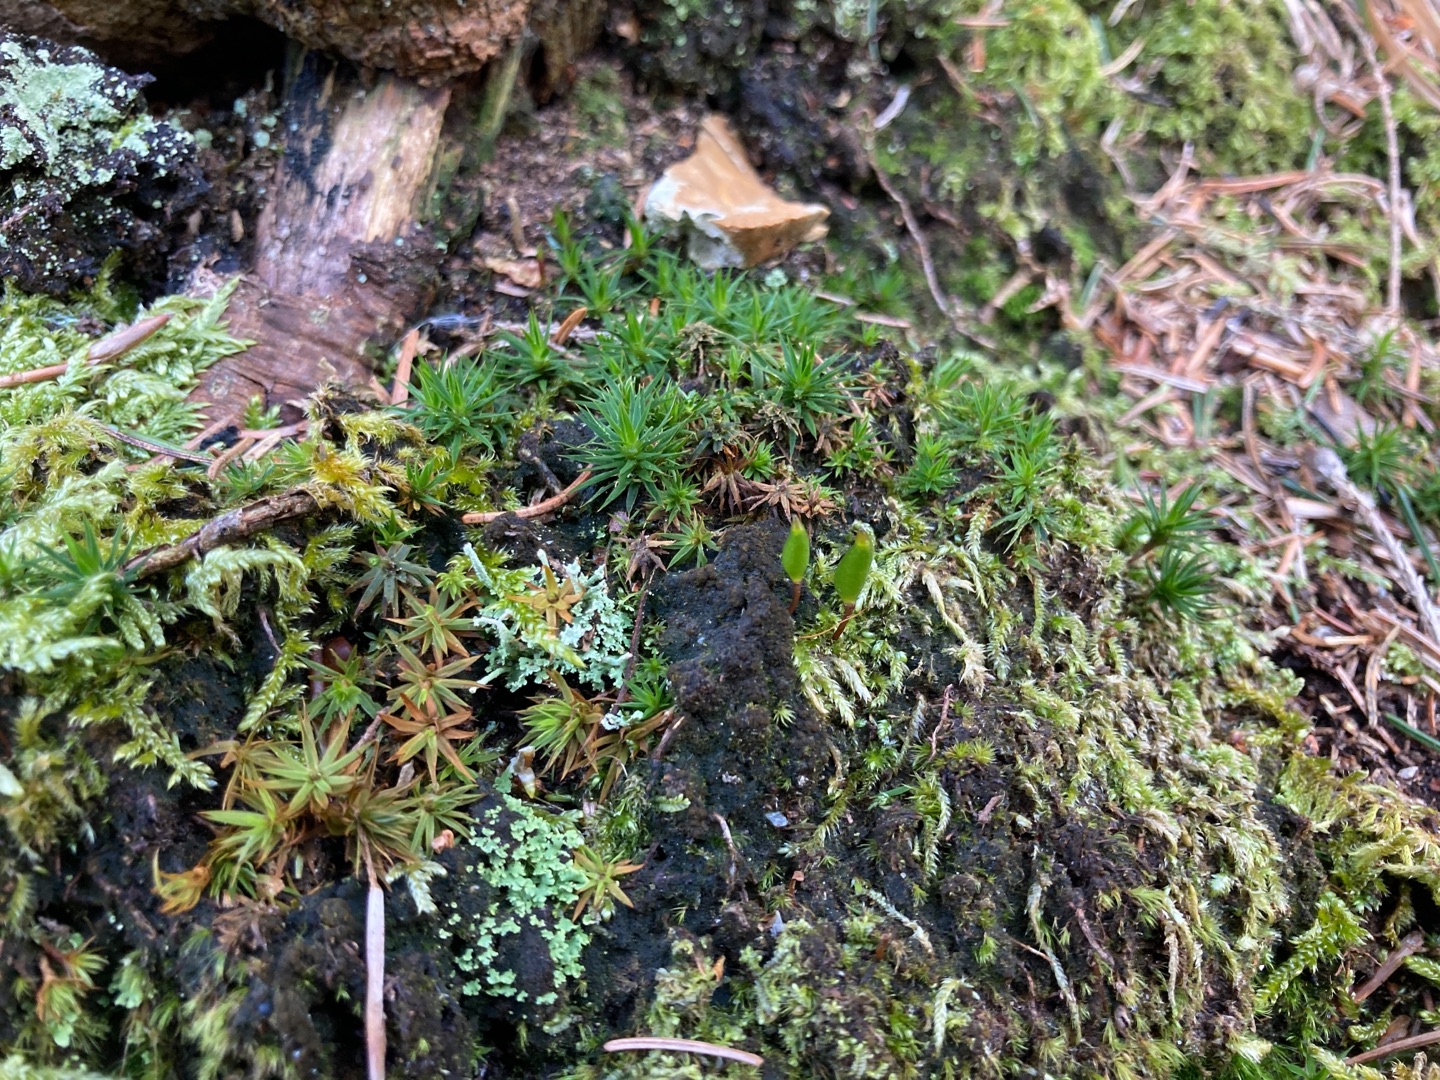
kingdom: Plantae
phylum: Bryophyta
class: Bryopsida
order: Buxbaumiales
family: Buxbaumiaceae
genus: Buxbaumia
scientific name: Buxbaumia viridis
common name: Grøn buxbaumia
